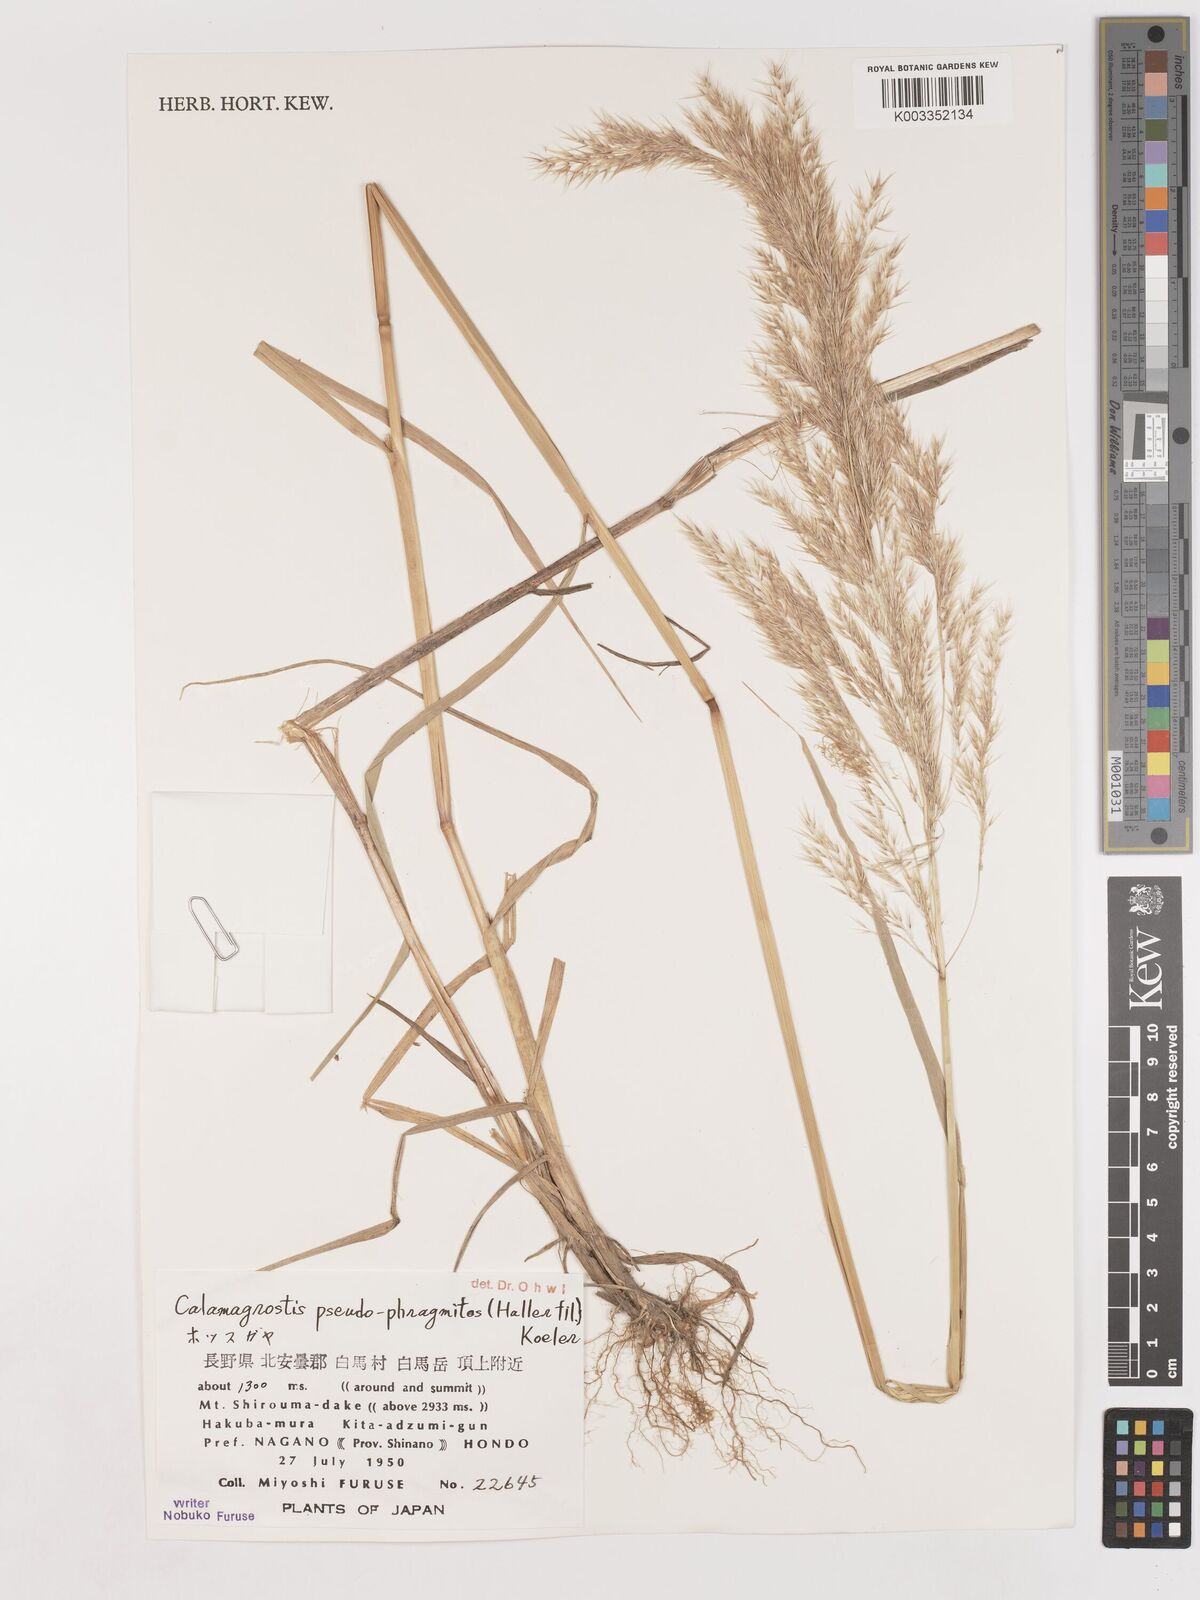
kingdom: Plantae
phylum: Tracheophyta
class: Liliopsida
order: Poales
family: Poaceae
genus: Calamagrostis
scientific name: Calamagrostis pseudophragmites
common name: Coastal small-reed
